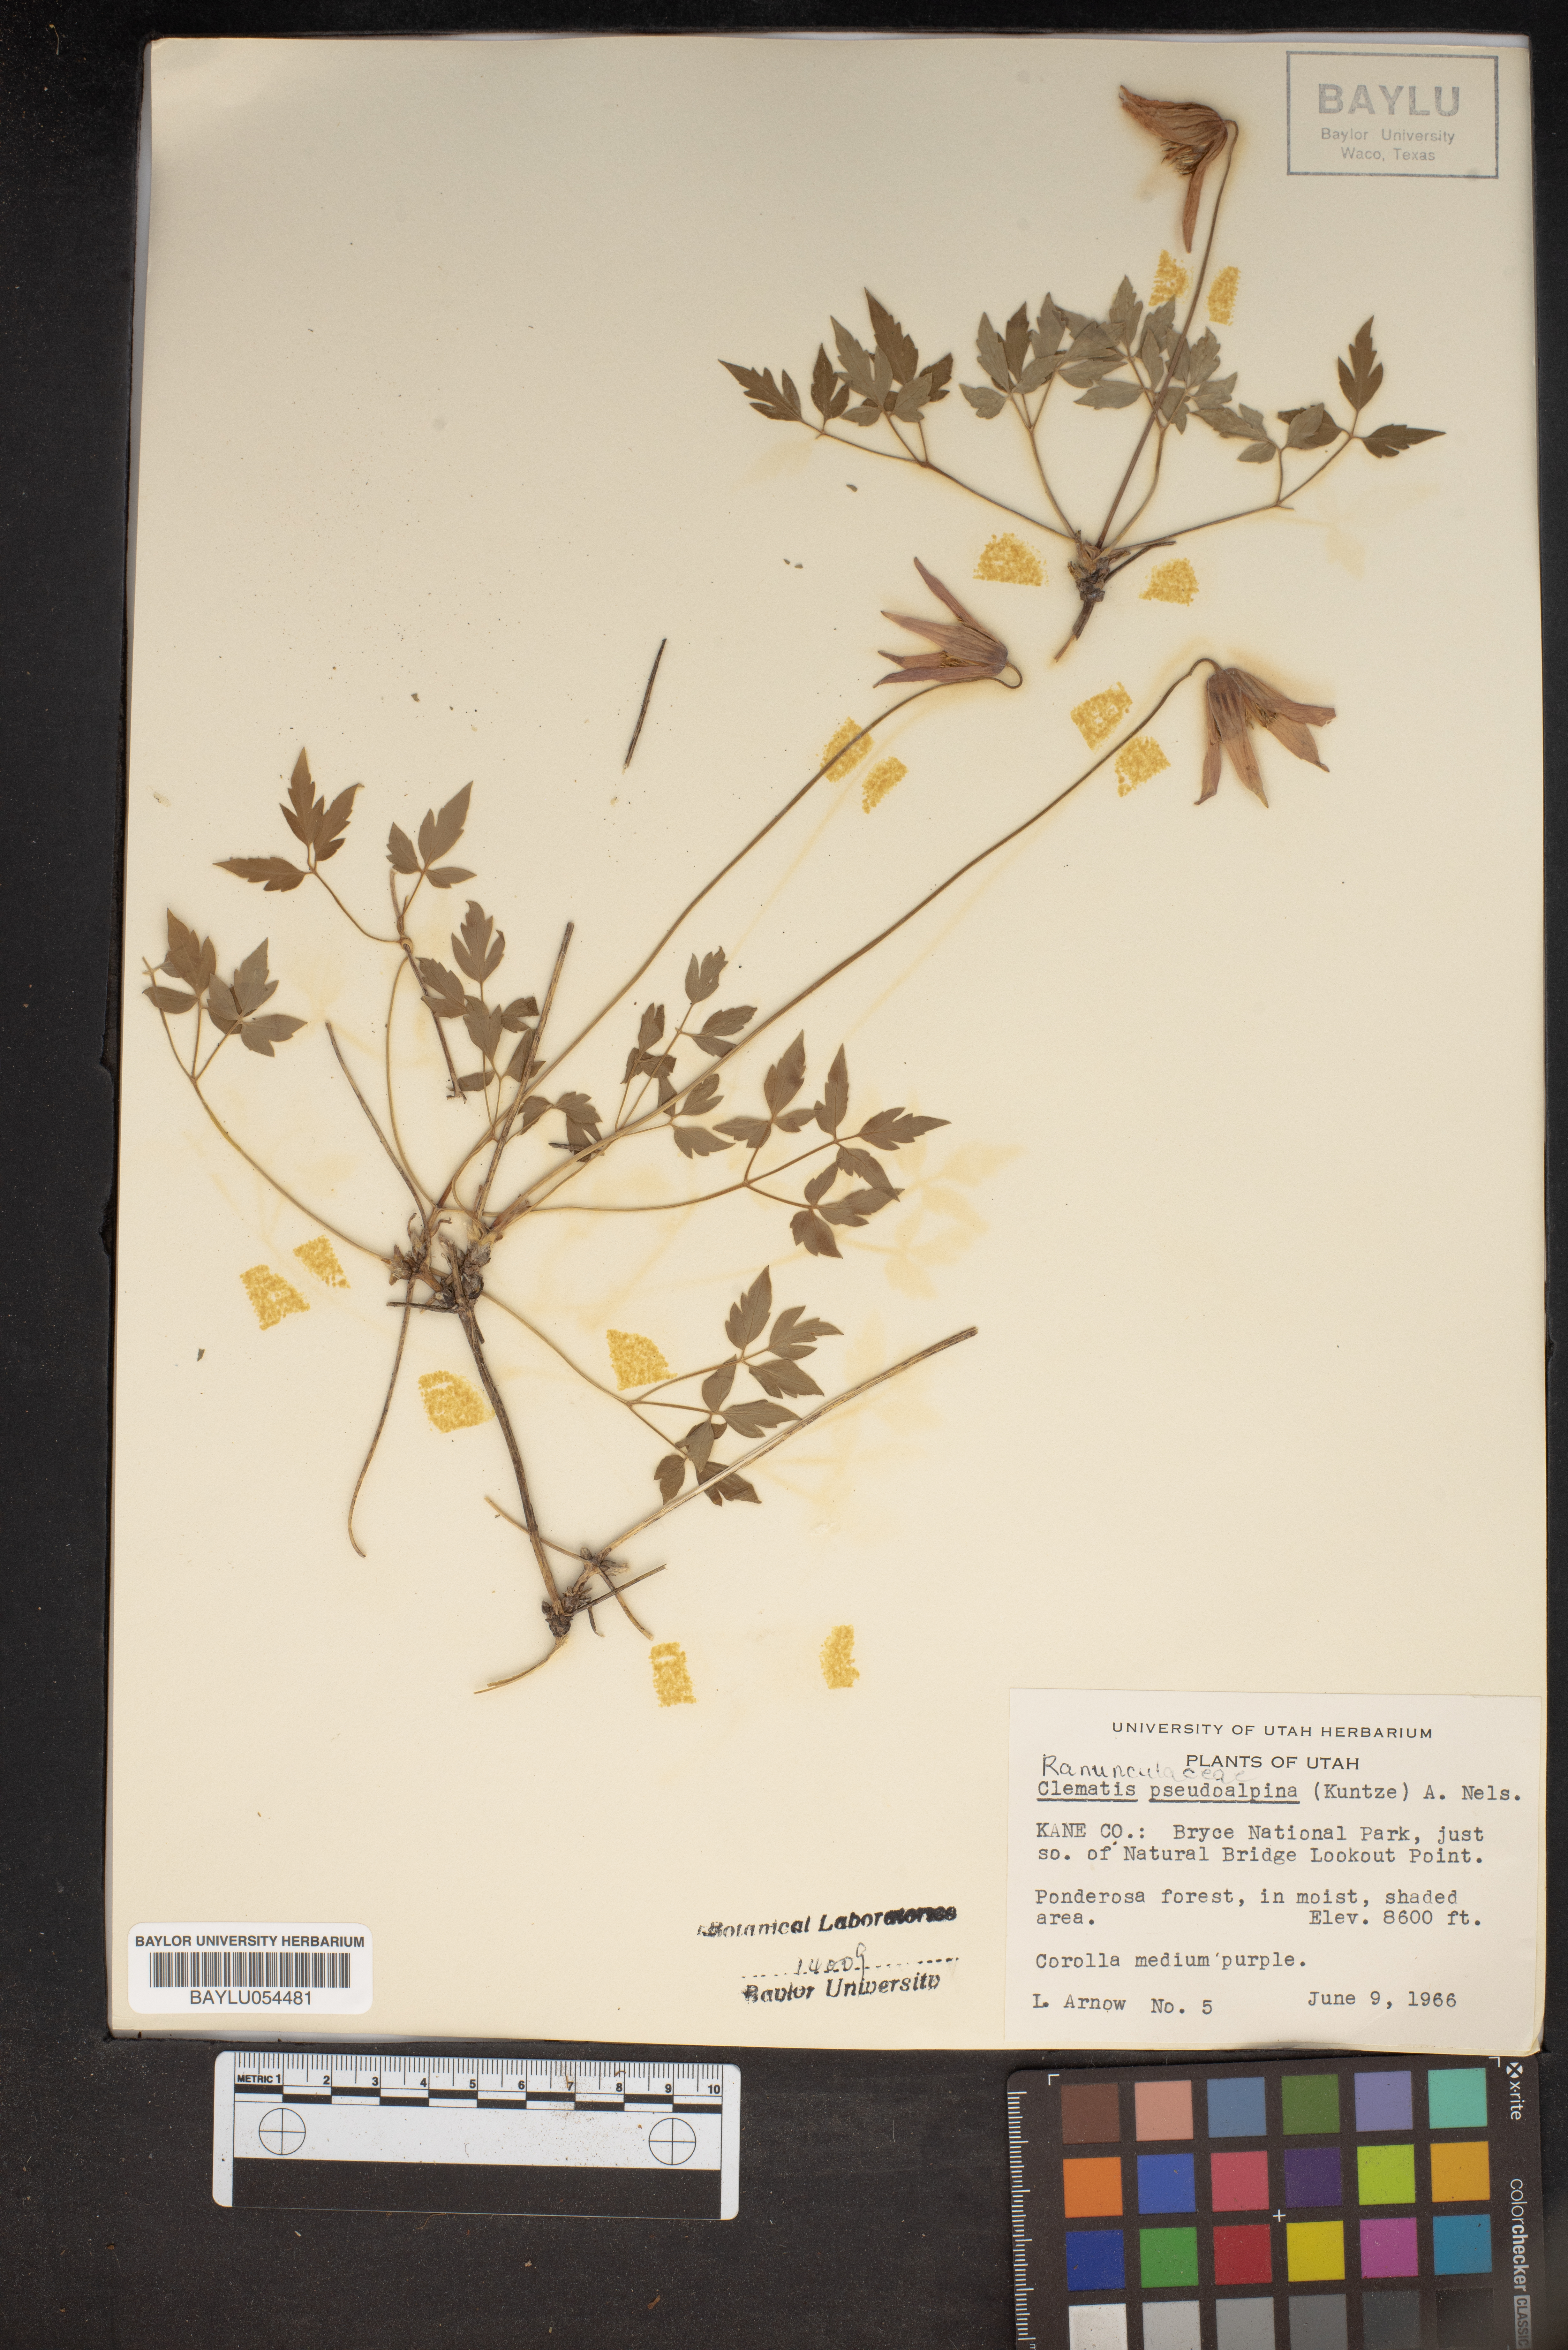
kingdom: Plantae
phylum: Tracheophyta
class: Magnoliopsida
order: Ranunculales
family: Ranunculaceae
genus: Clematis
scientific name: Clematis columbiana
